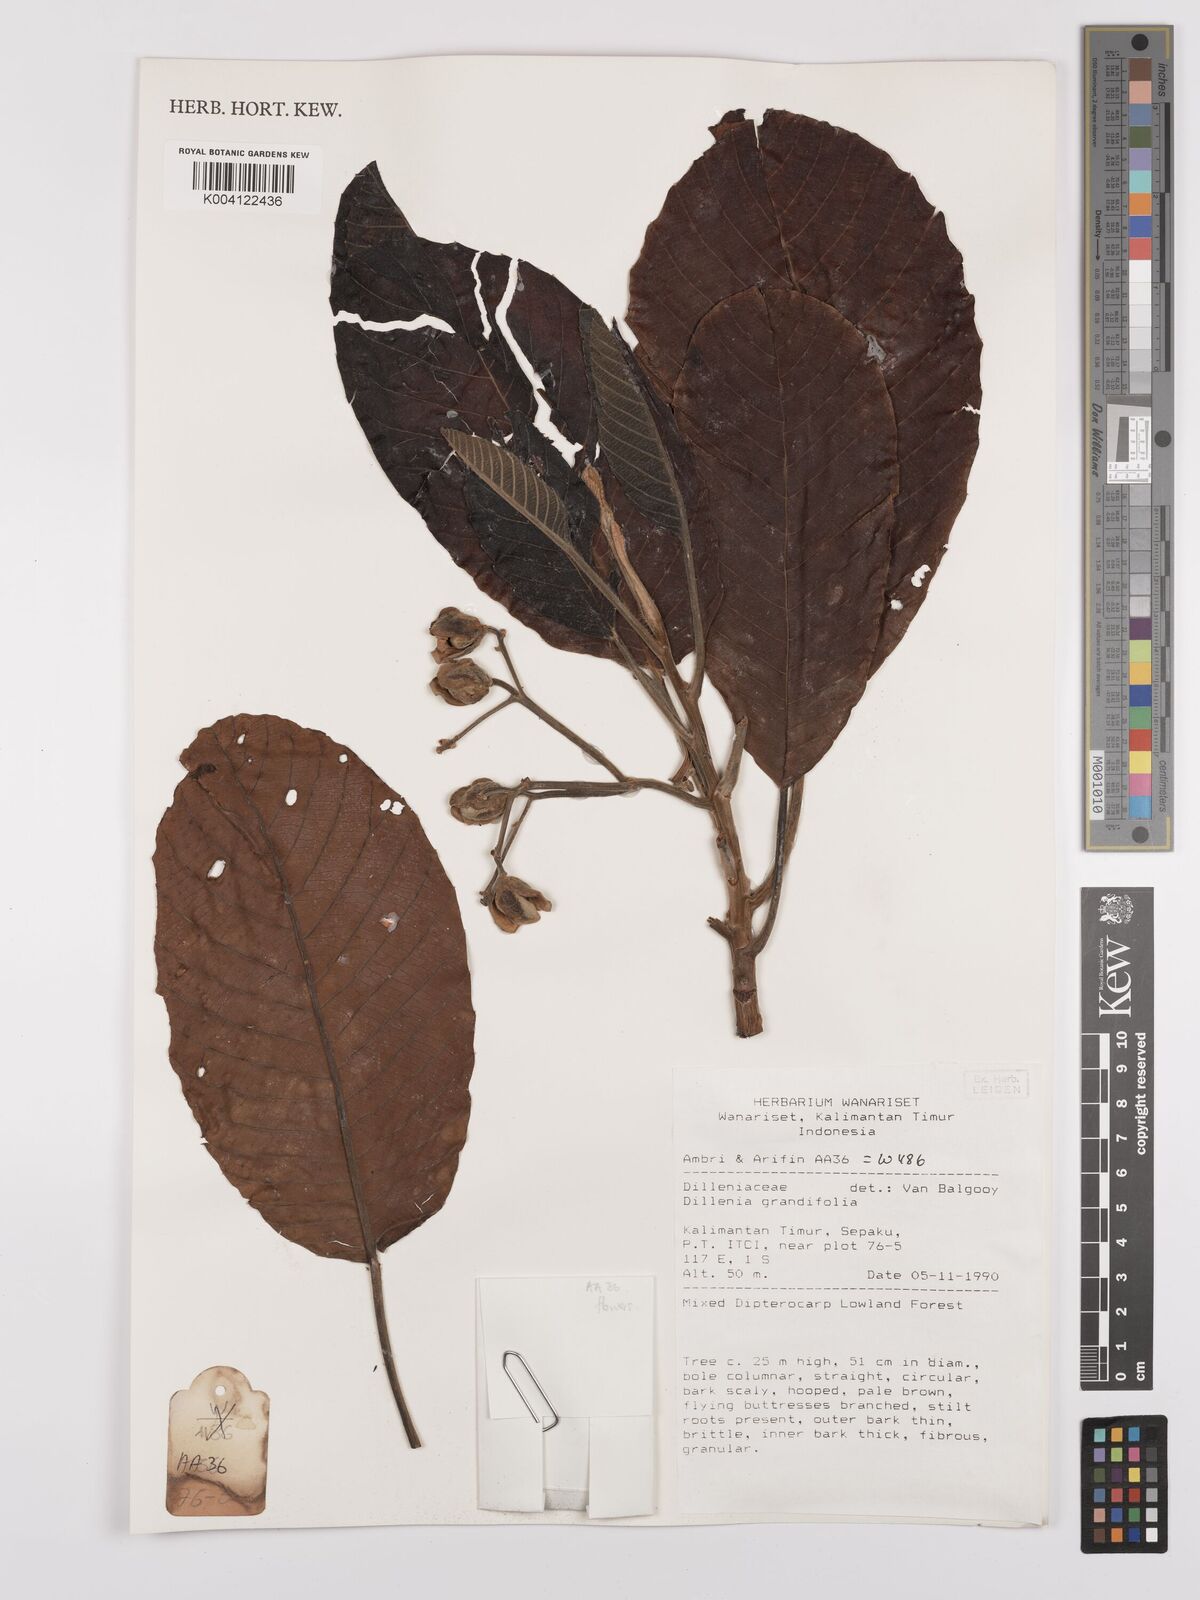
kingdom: Plantae
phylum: Tracheophyta
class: Magnoliopsida
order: Dilleniales
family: Dilleniaceae
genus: Dillenia
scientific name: Dillenia grandifolia
